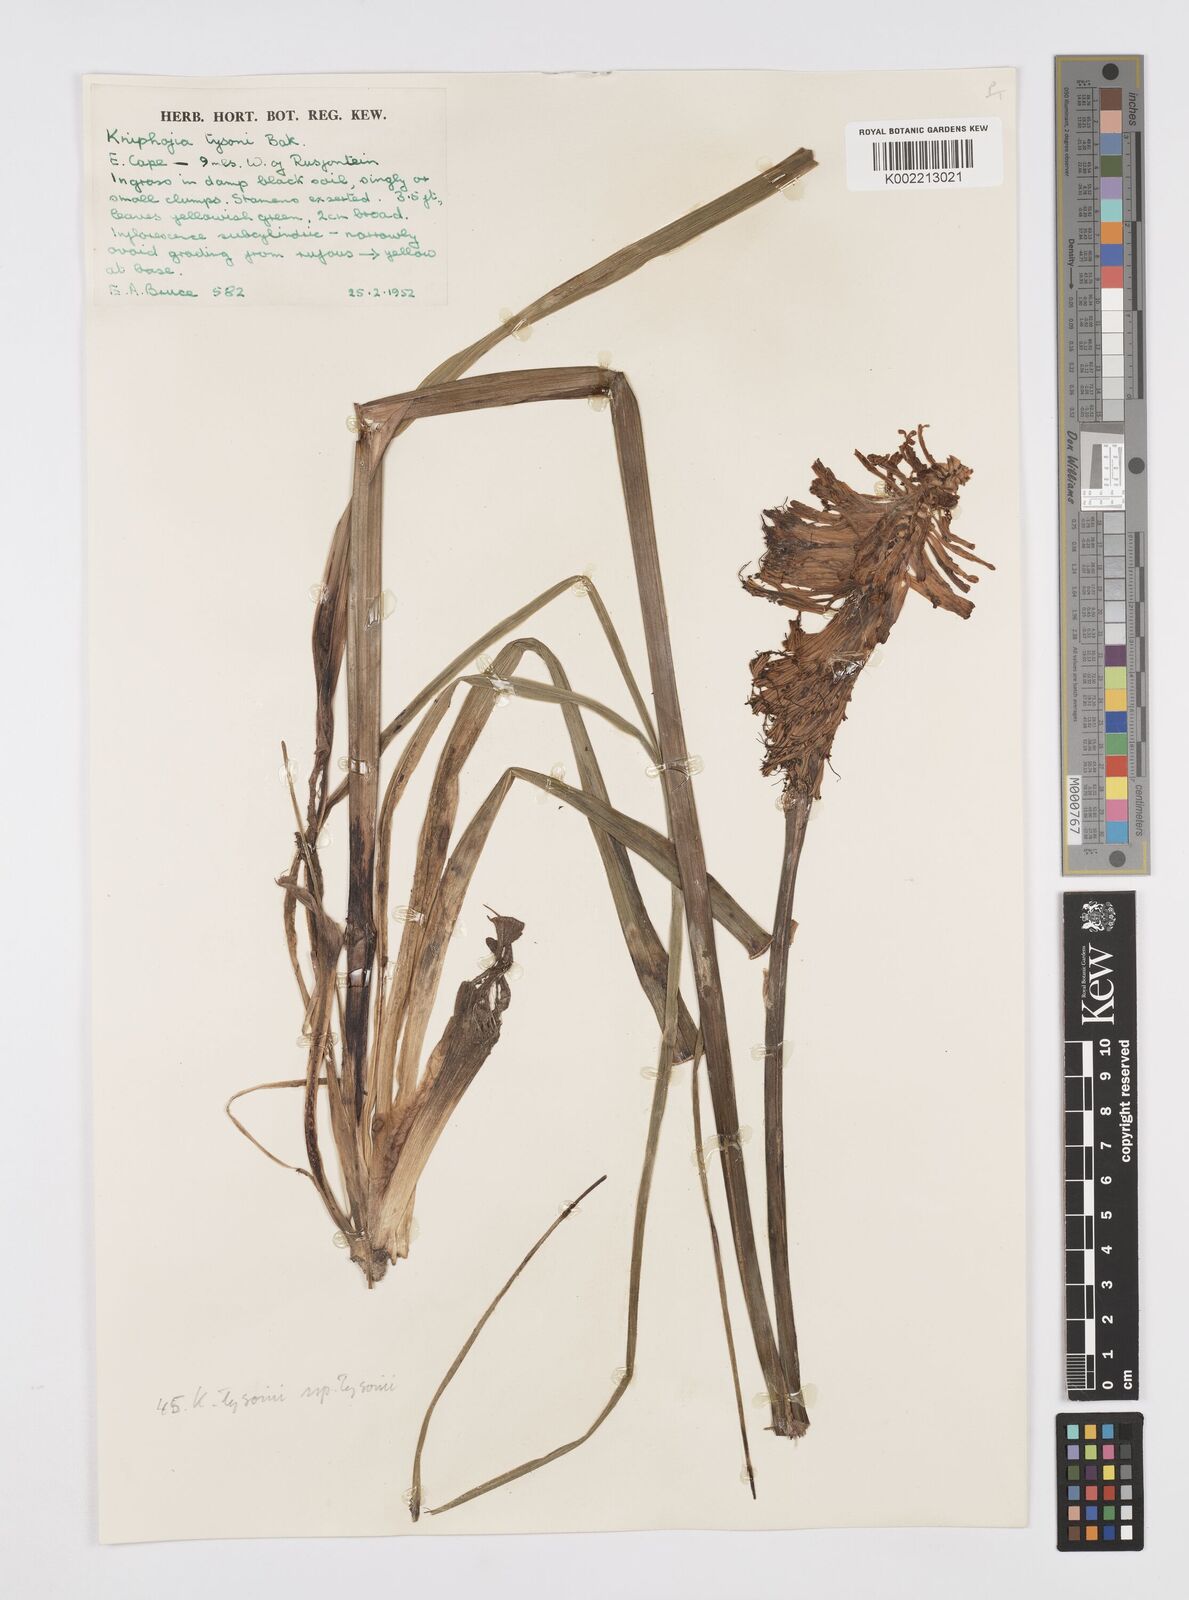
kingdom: Plantae
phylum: Tracheophyta
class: Liliopsida
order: Asparagales
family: Asphodelaceae
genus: Kniphofia
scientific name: Kniphofia tysonii
